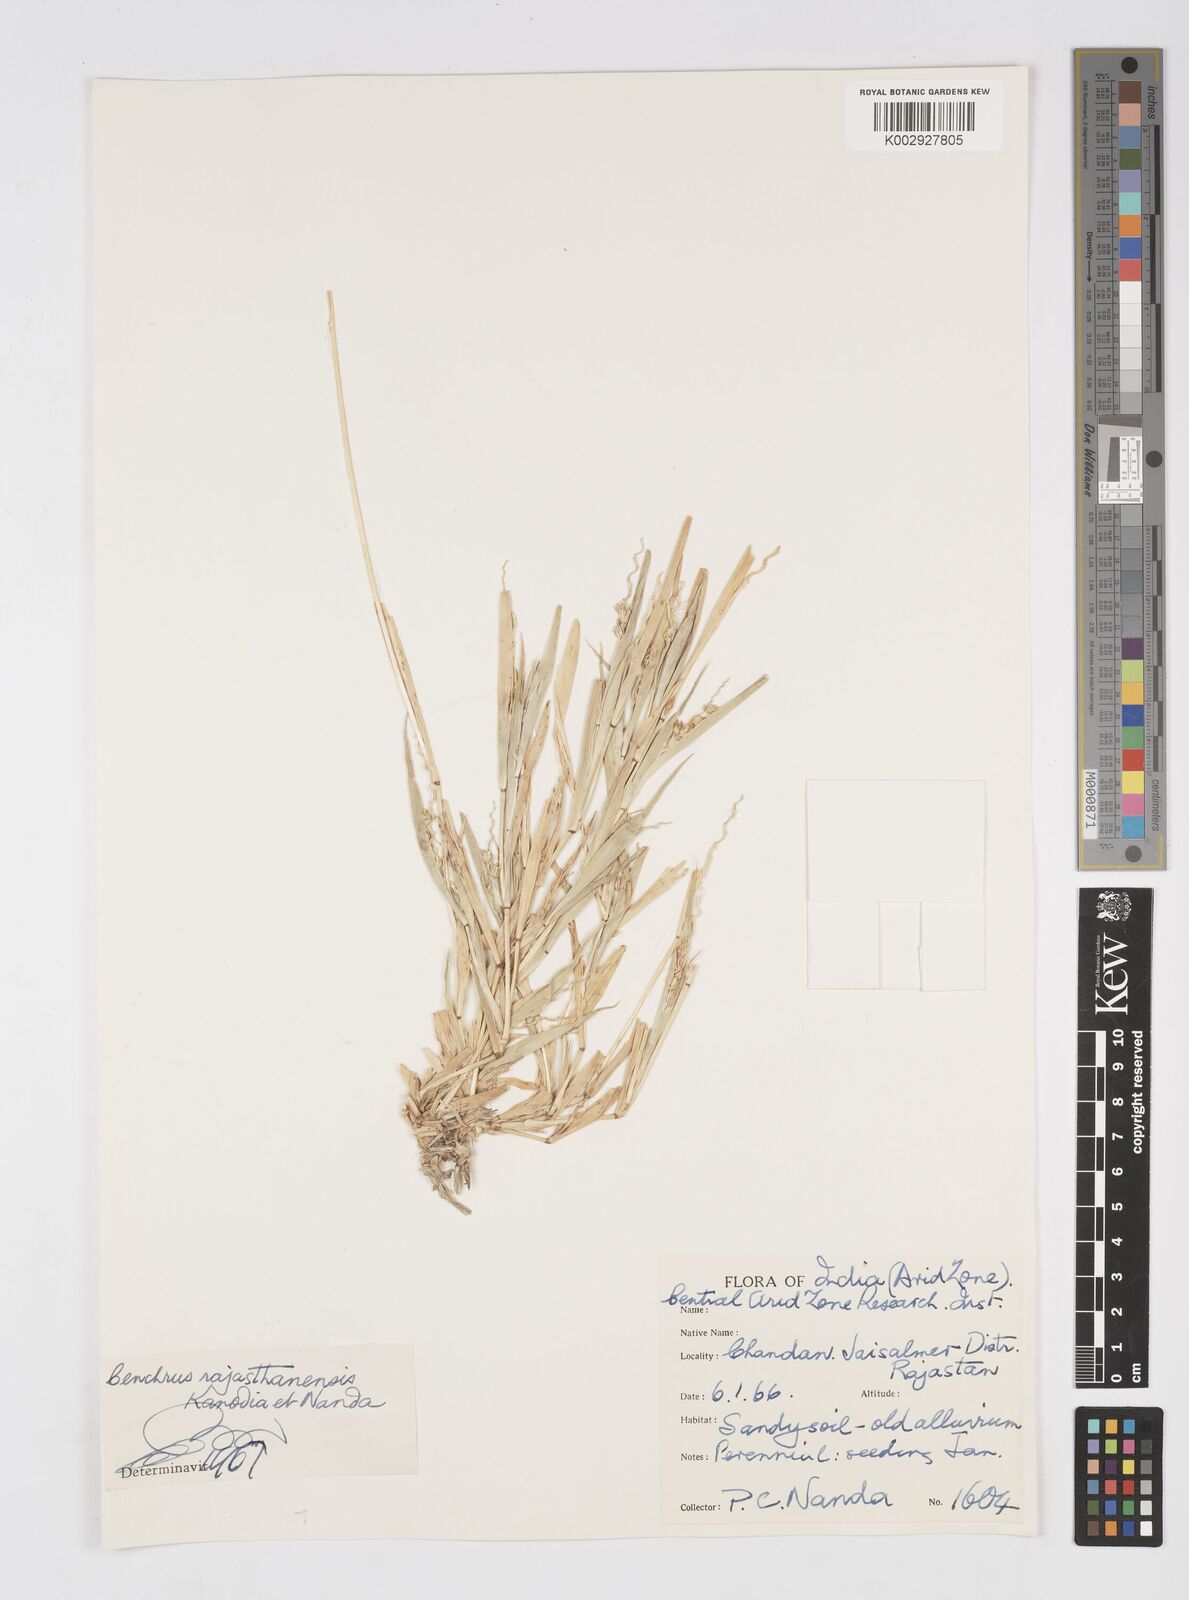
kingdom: Plantae
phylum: Tracheophyta
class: Liliopsida
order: Poales
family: Poaceae
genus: Cenchrus
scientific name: Cenchrus biflorus
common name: Indian sandbur
